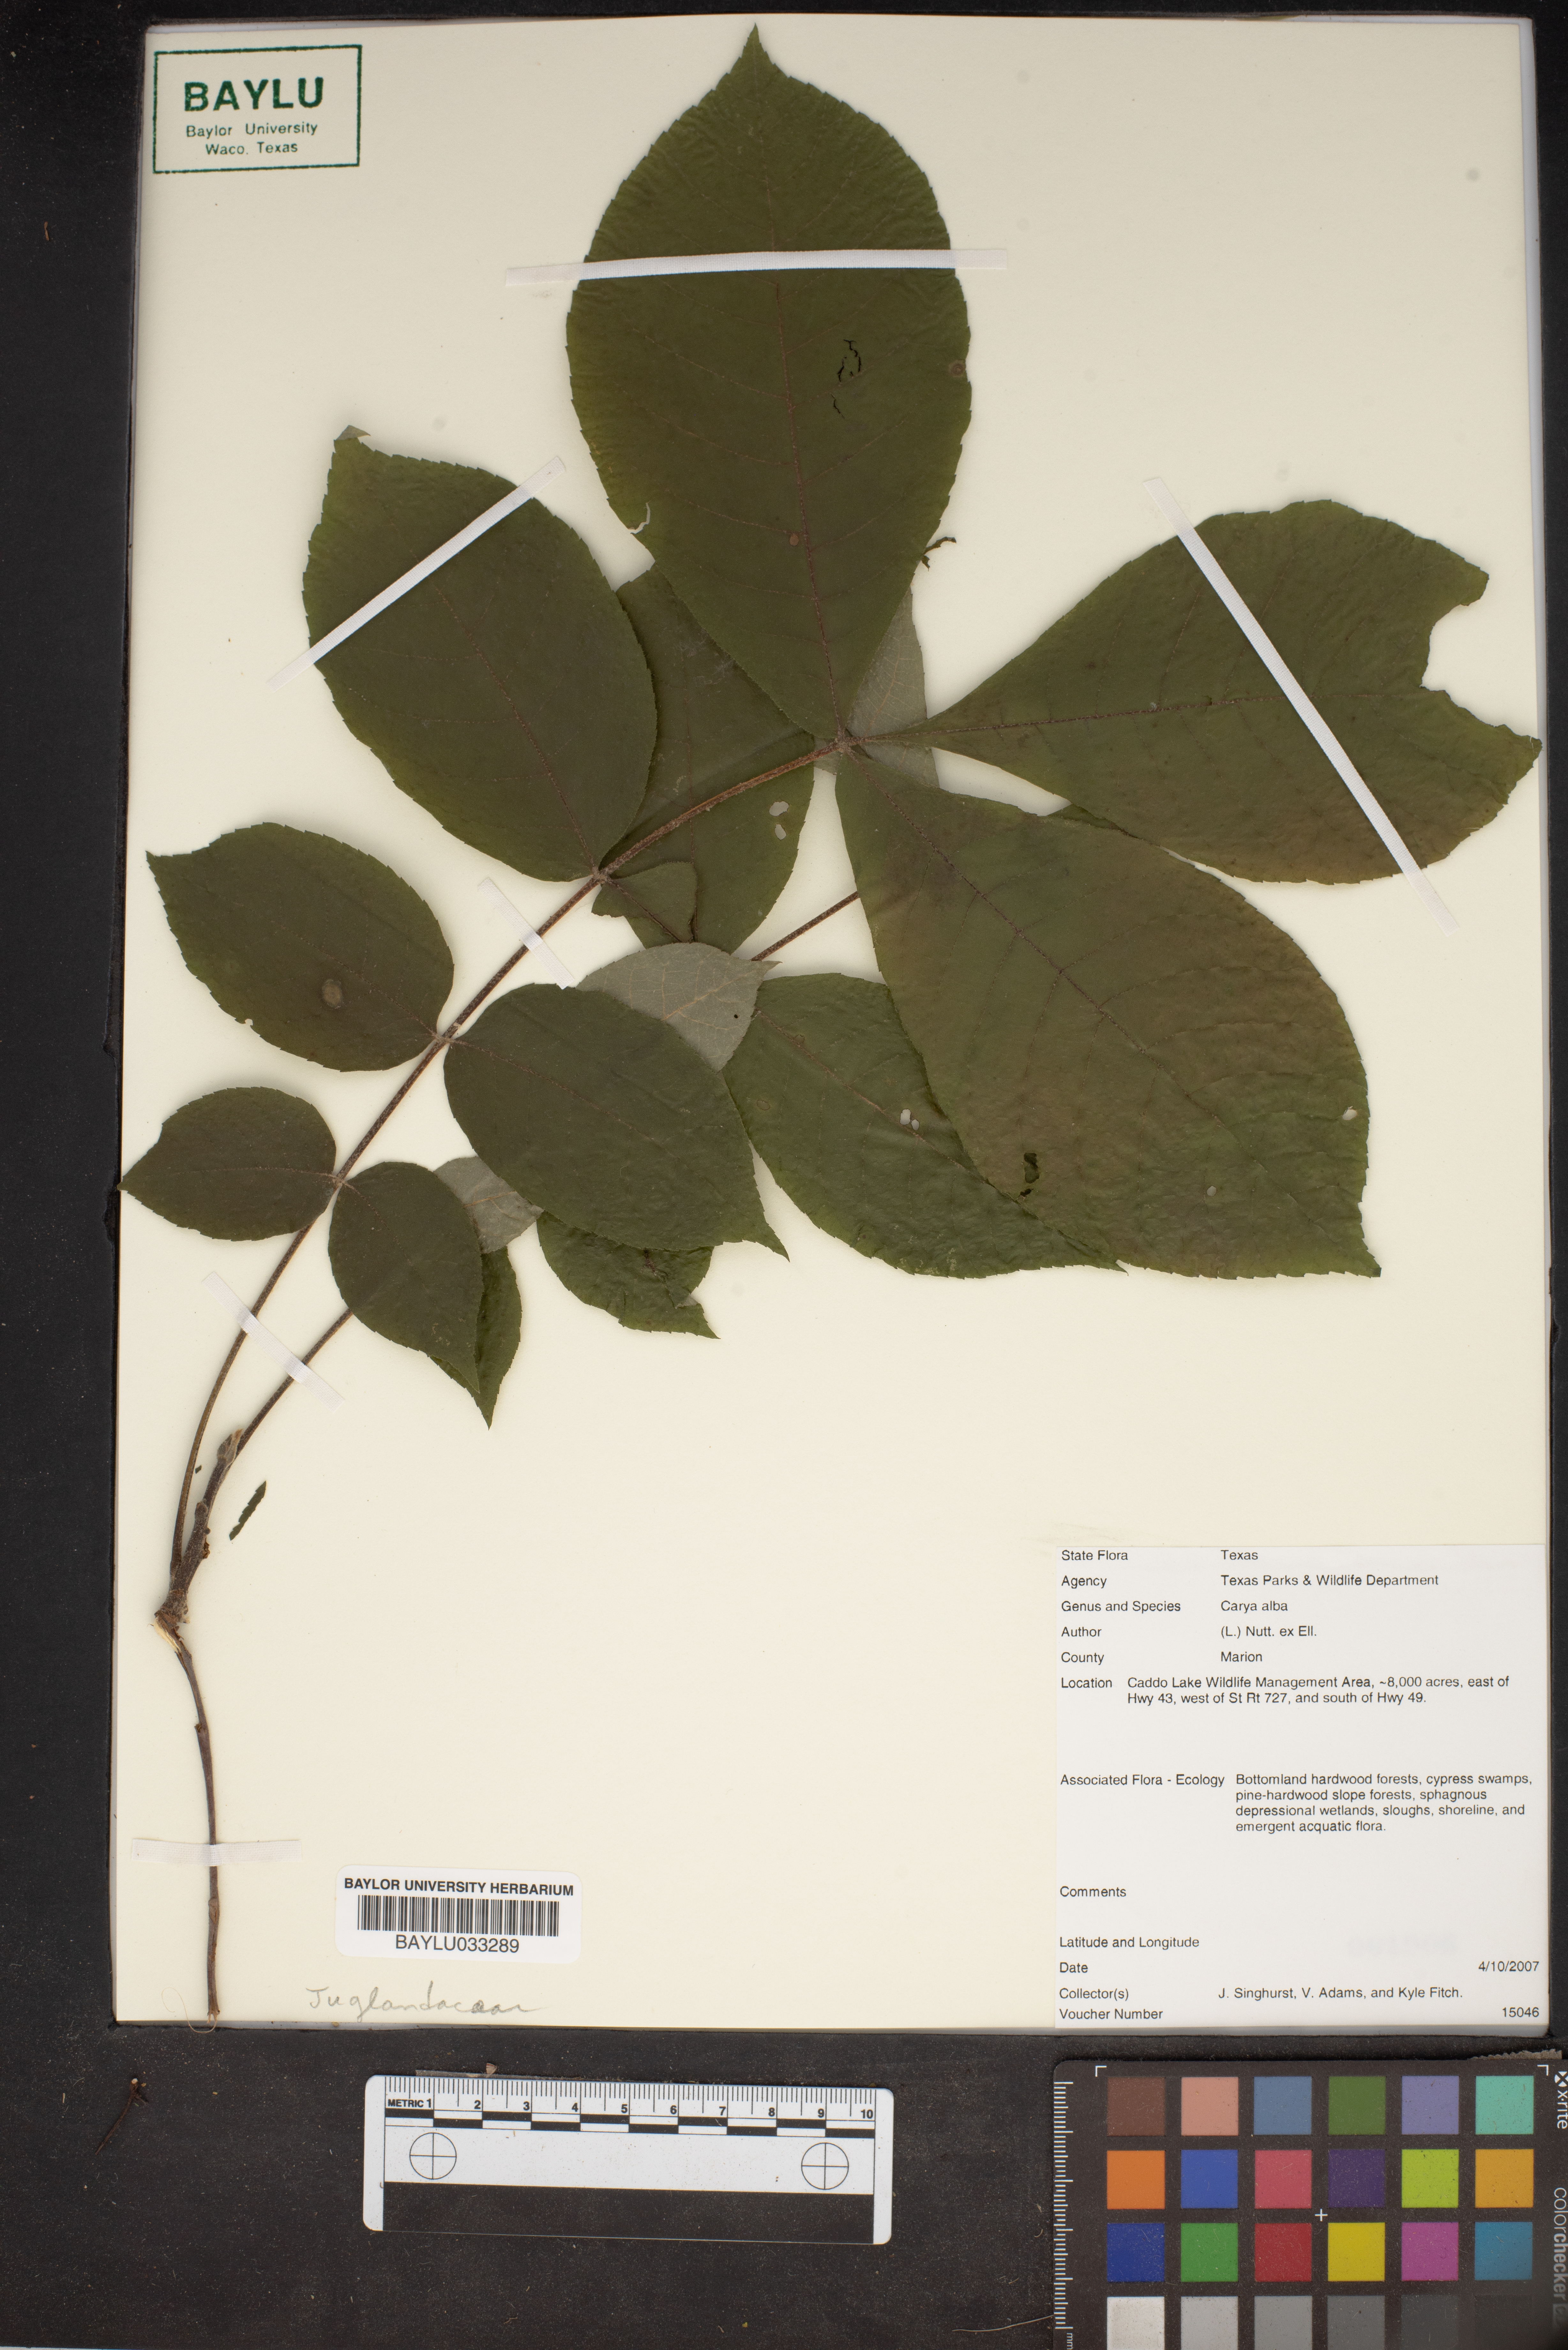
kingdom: Plantae
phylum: Tracheophyta
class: Magnoliopsida
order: Fagales
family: Juglandaceae
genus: Carya
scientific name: Carya alba
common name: Mockernut hickory
